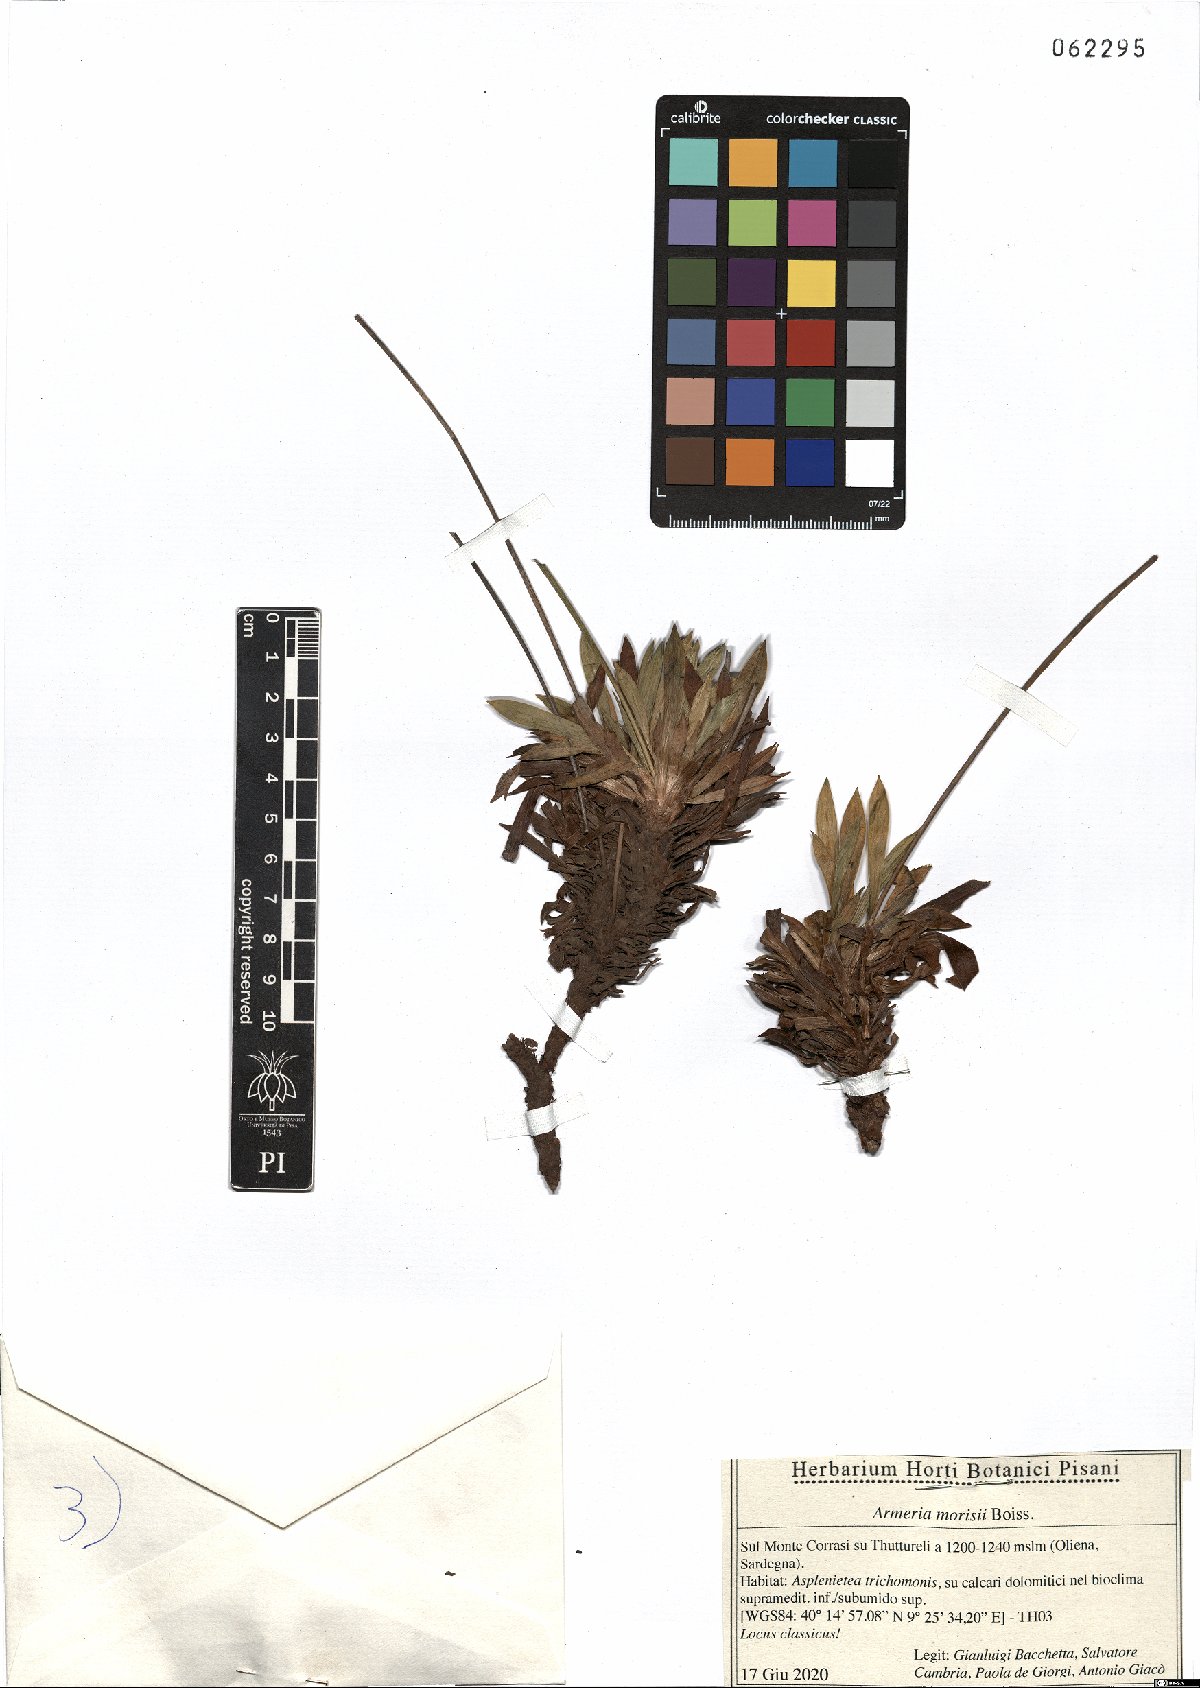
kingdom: Plantae
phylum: Tracheophyta
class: Magnoliopsida
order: Caryophyllales
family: Plumbaginaceae
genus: Armeria
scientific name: Armeria morisii
